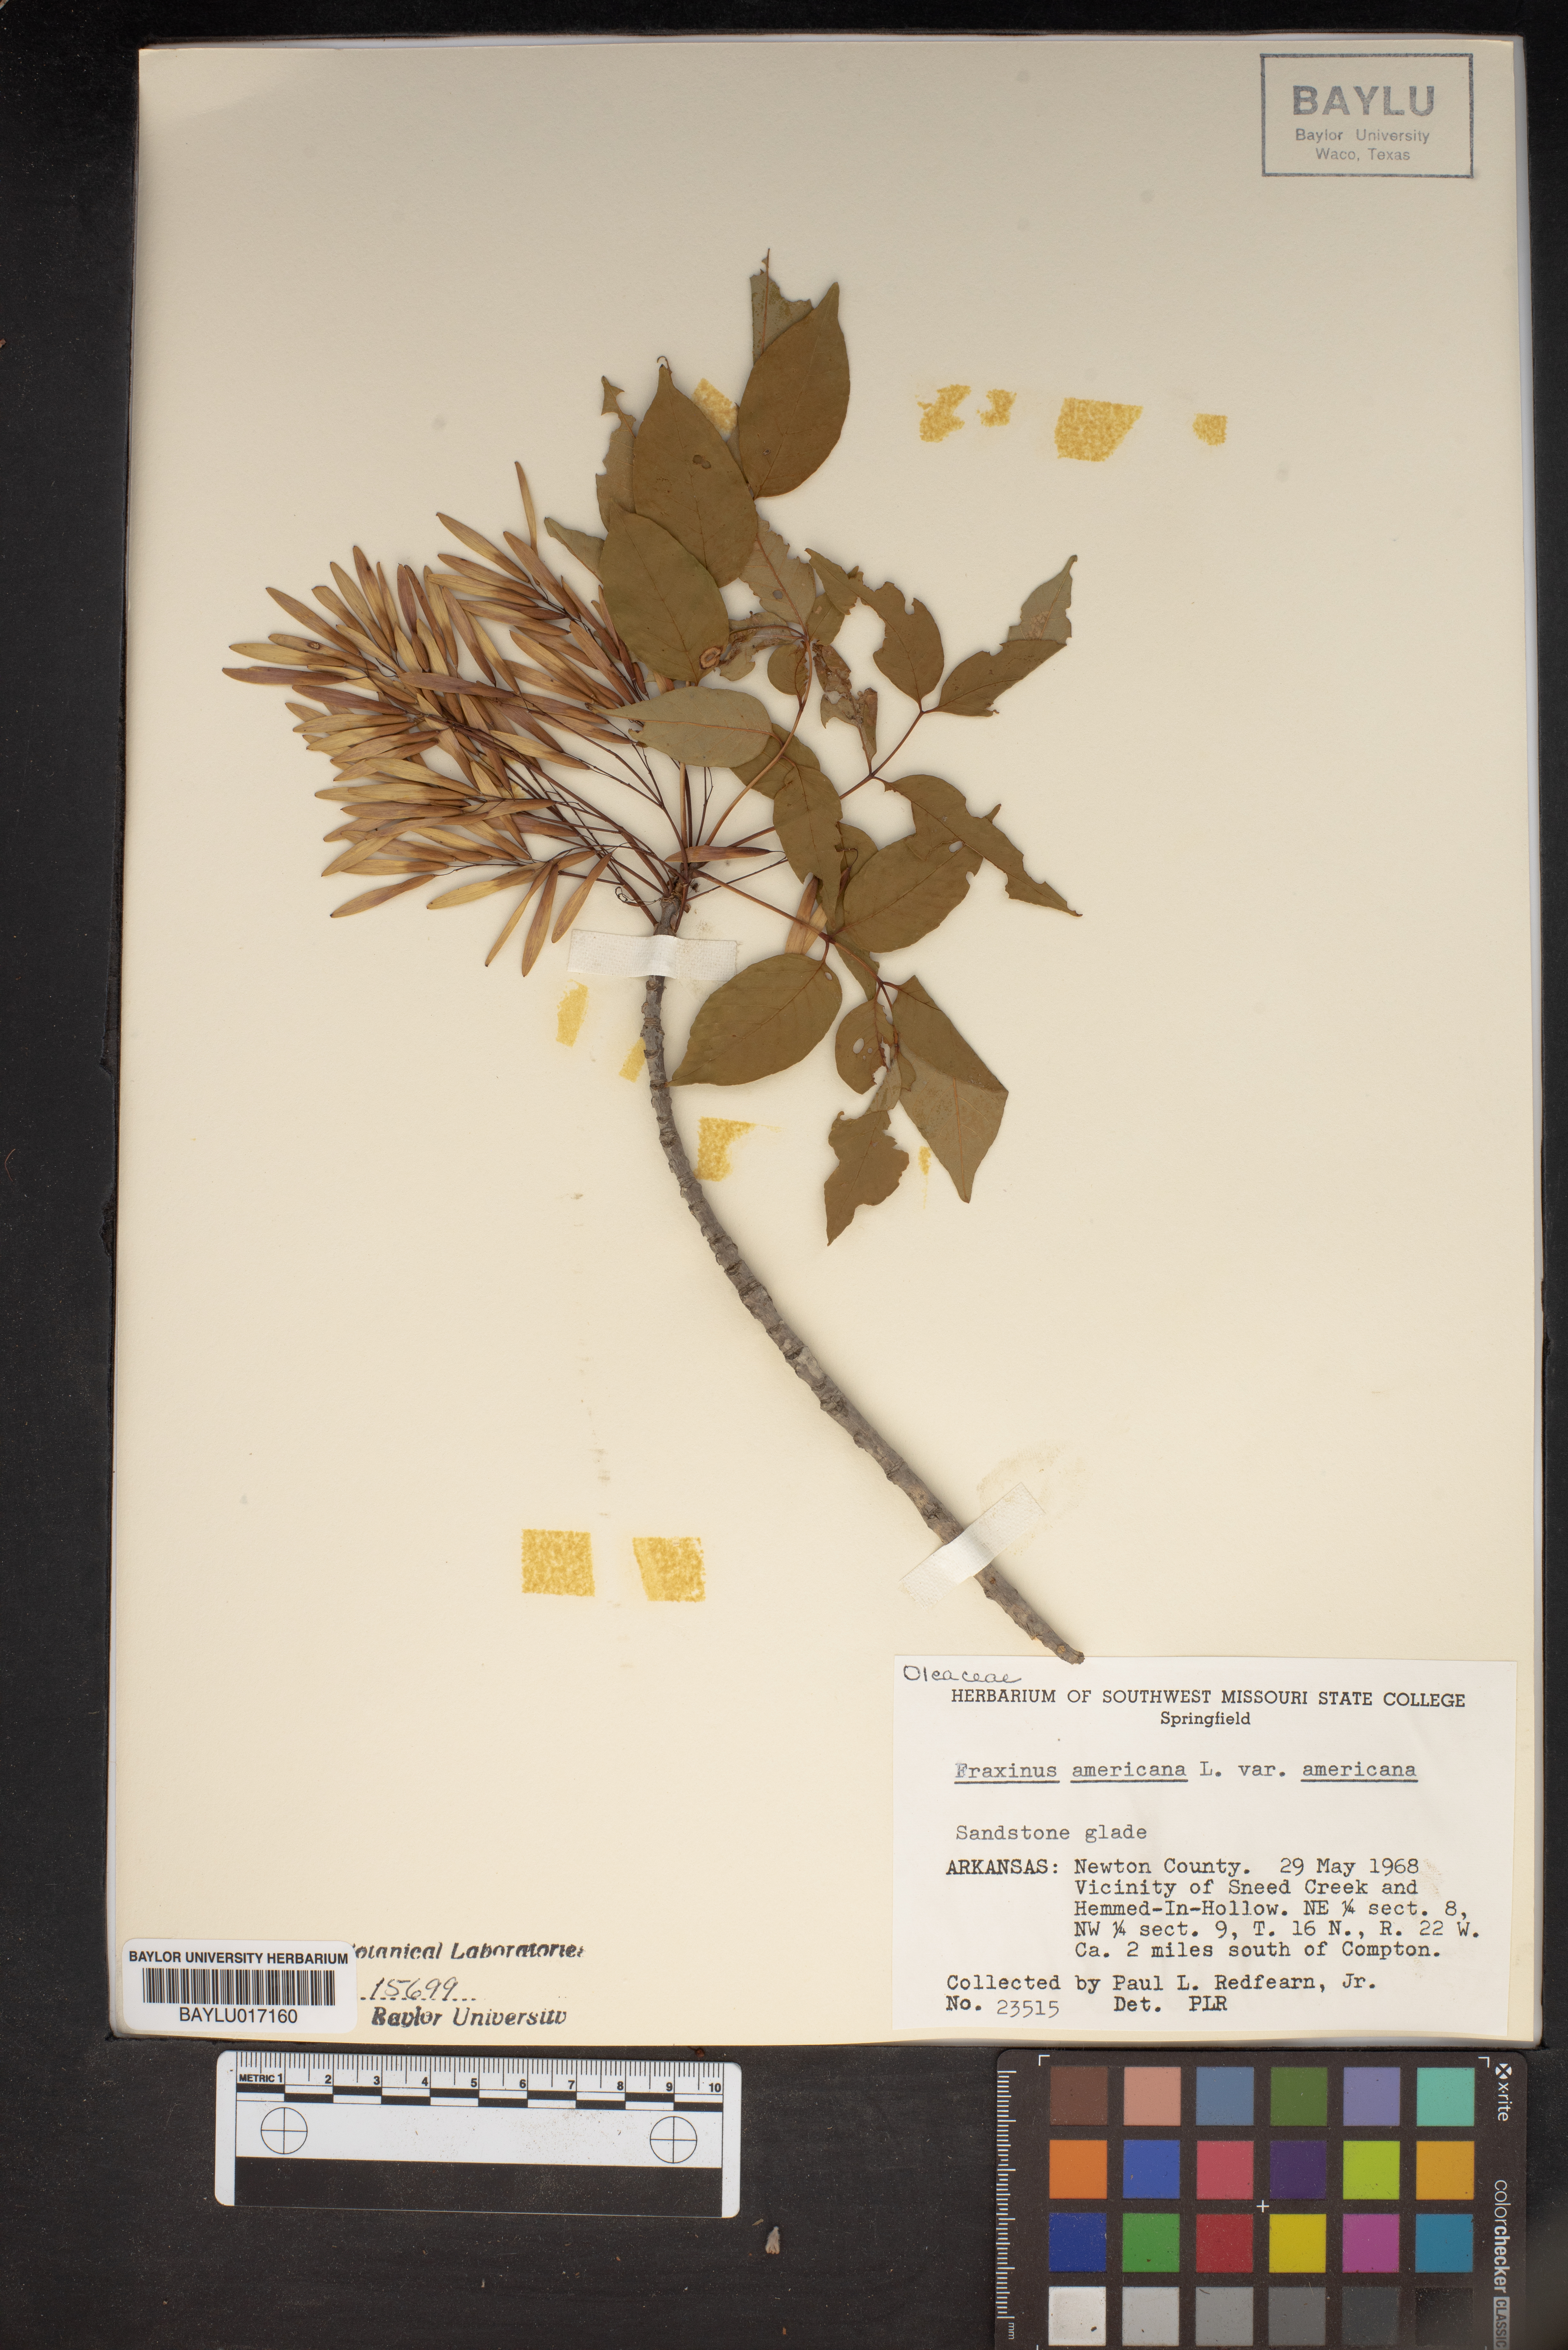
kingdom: Plantae
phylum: Tracheophyta
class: Magnoliopsida
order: Lamiales
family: Oleaceae
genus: Fraxinus
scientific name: Fraxinus americana
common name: White ash
